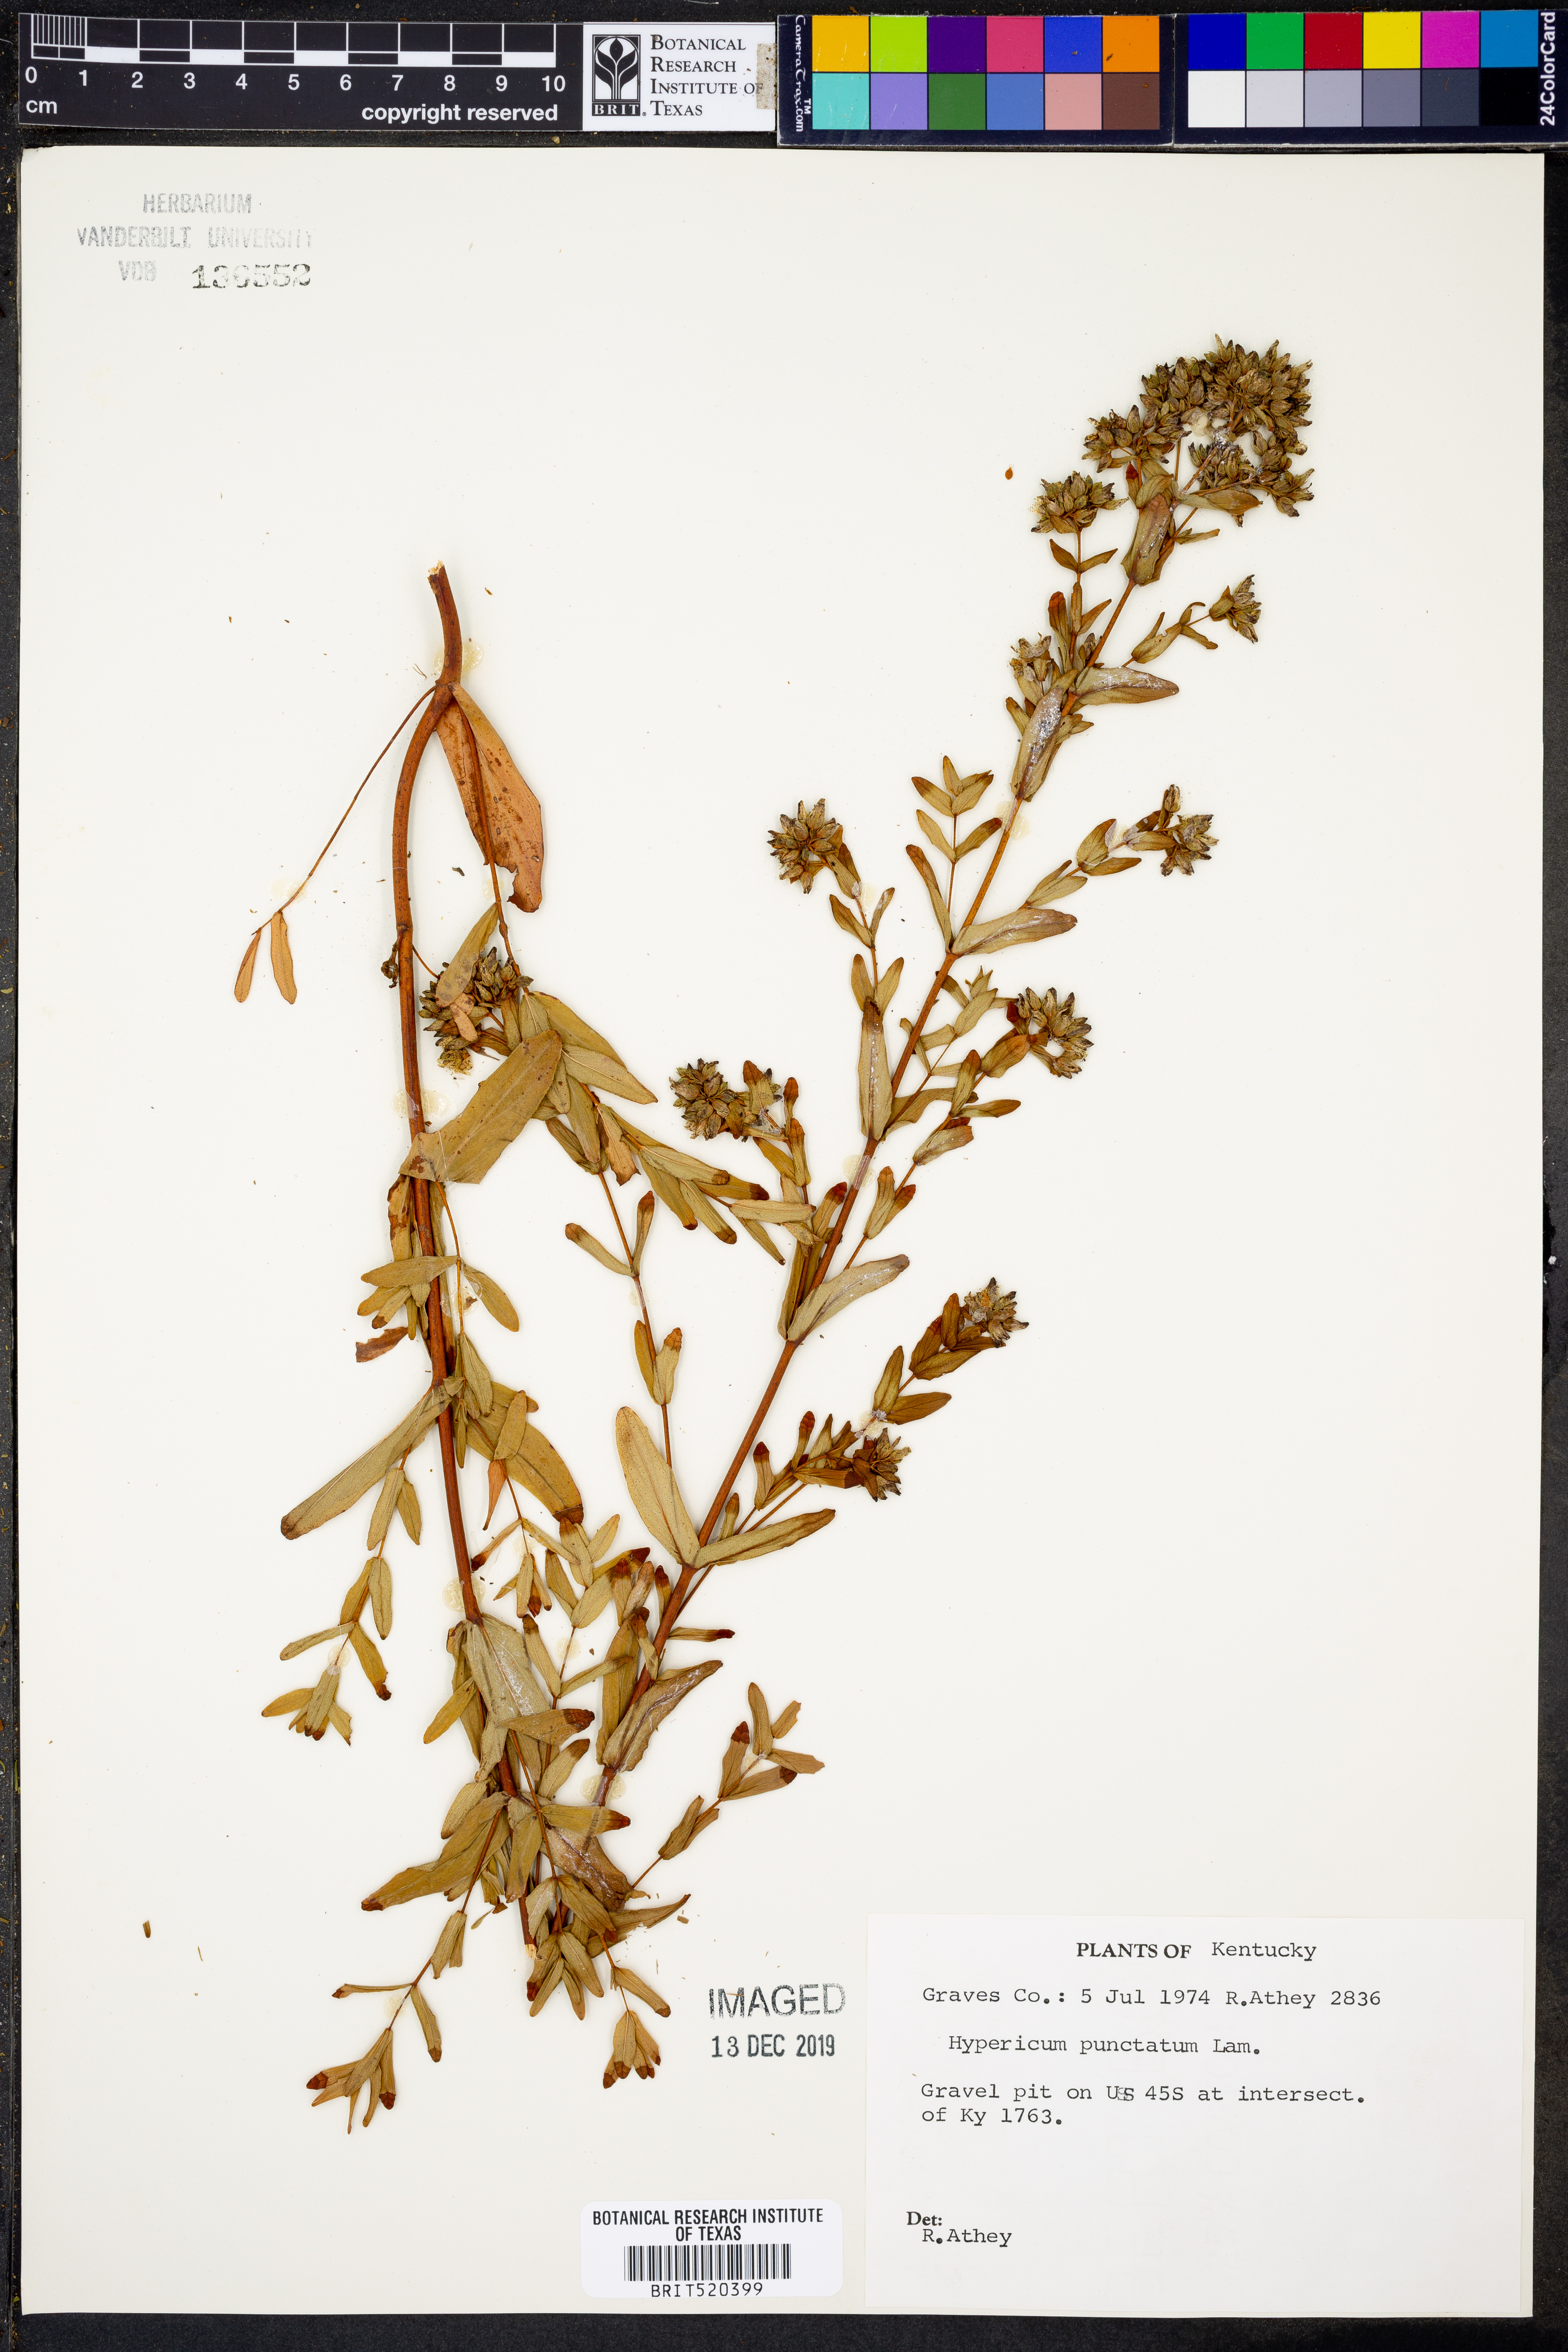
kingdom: Plantae
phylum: Tracheophyta
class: Magnoliopsida
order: Malpighiales
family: Hypericaceae
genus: Hypericum
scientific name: Hypericum punctatum
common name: Spotted st. john's-wort
